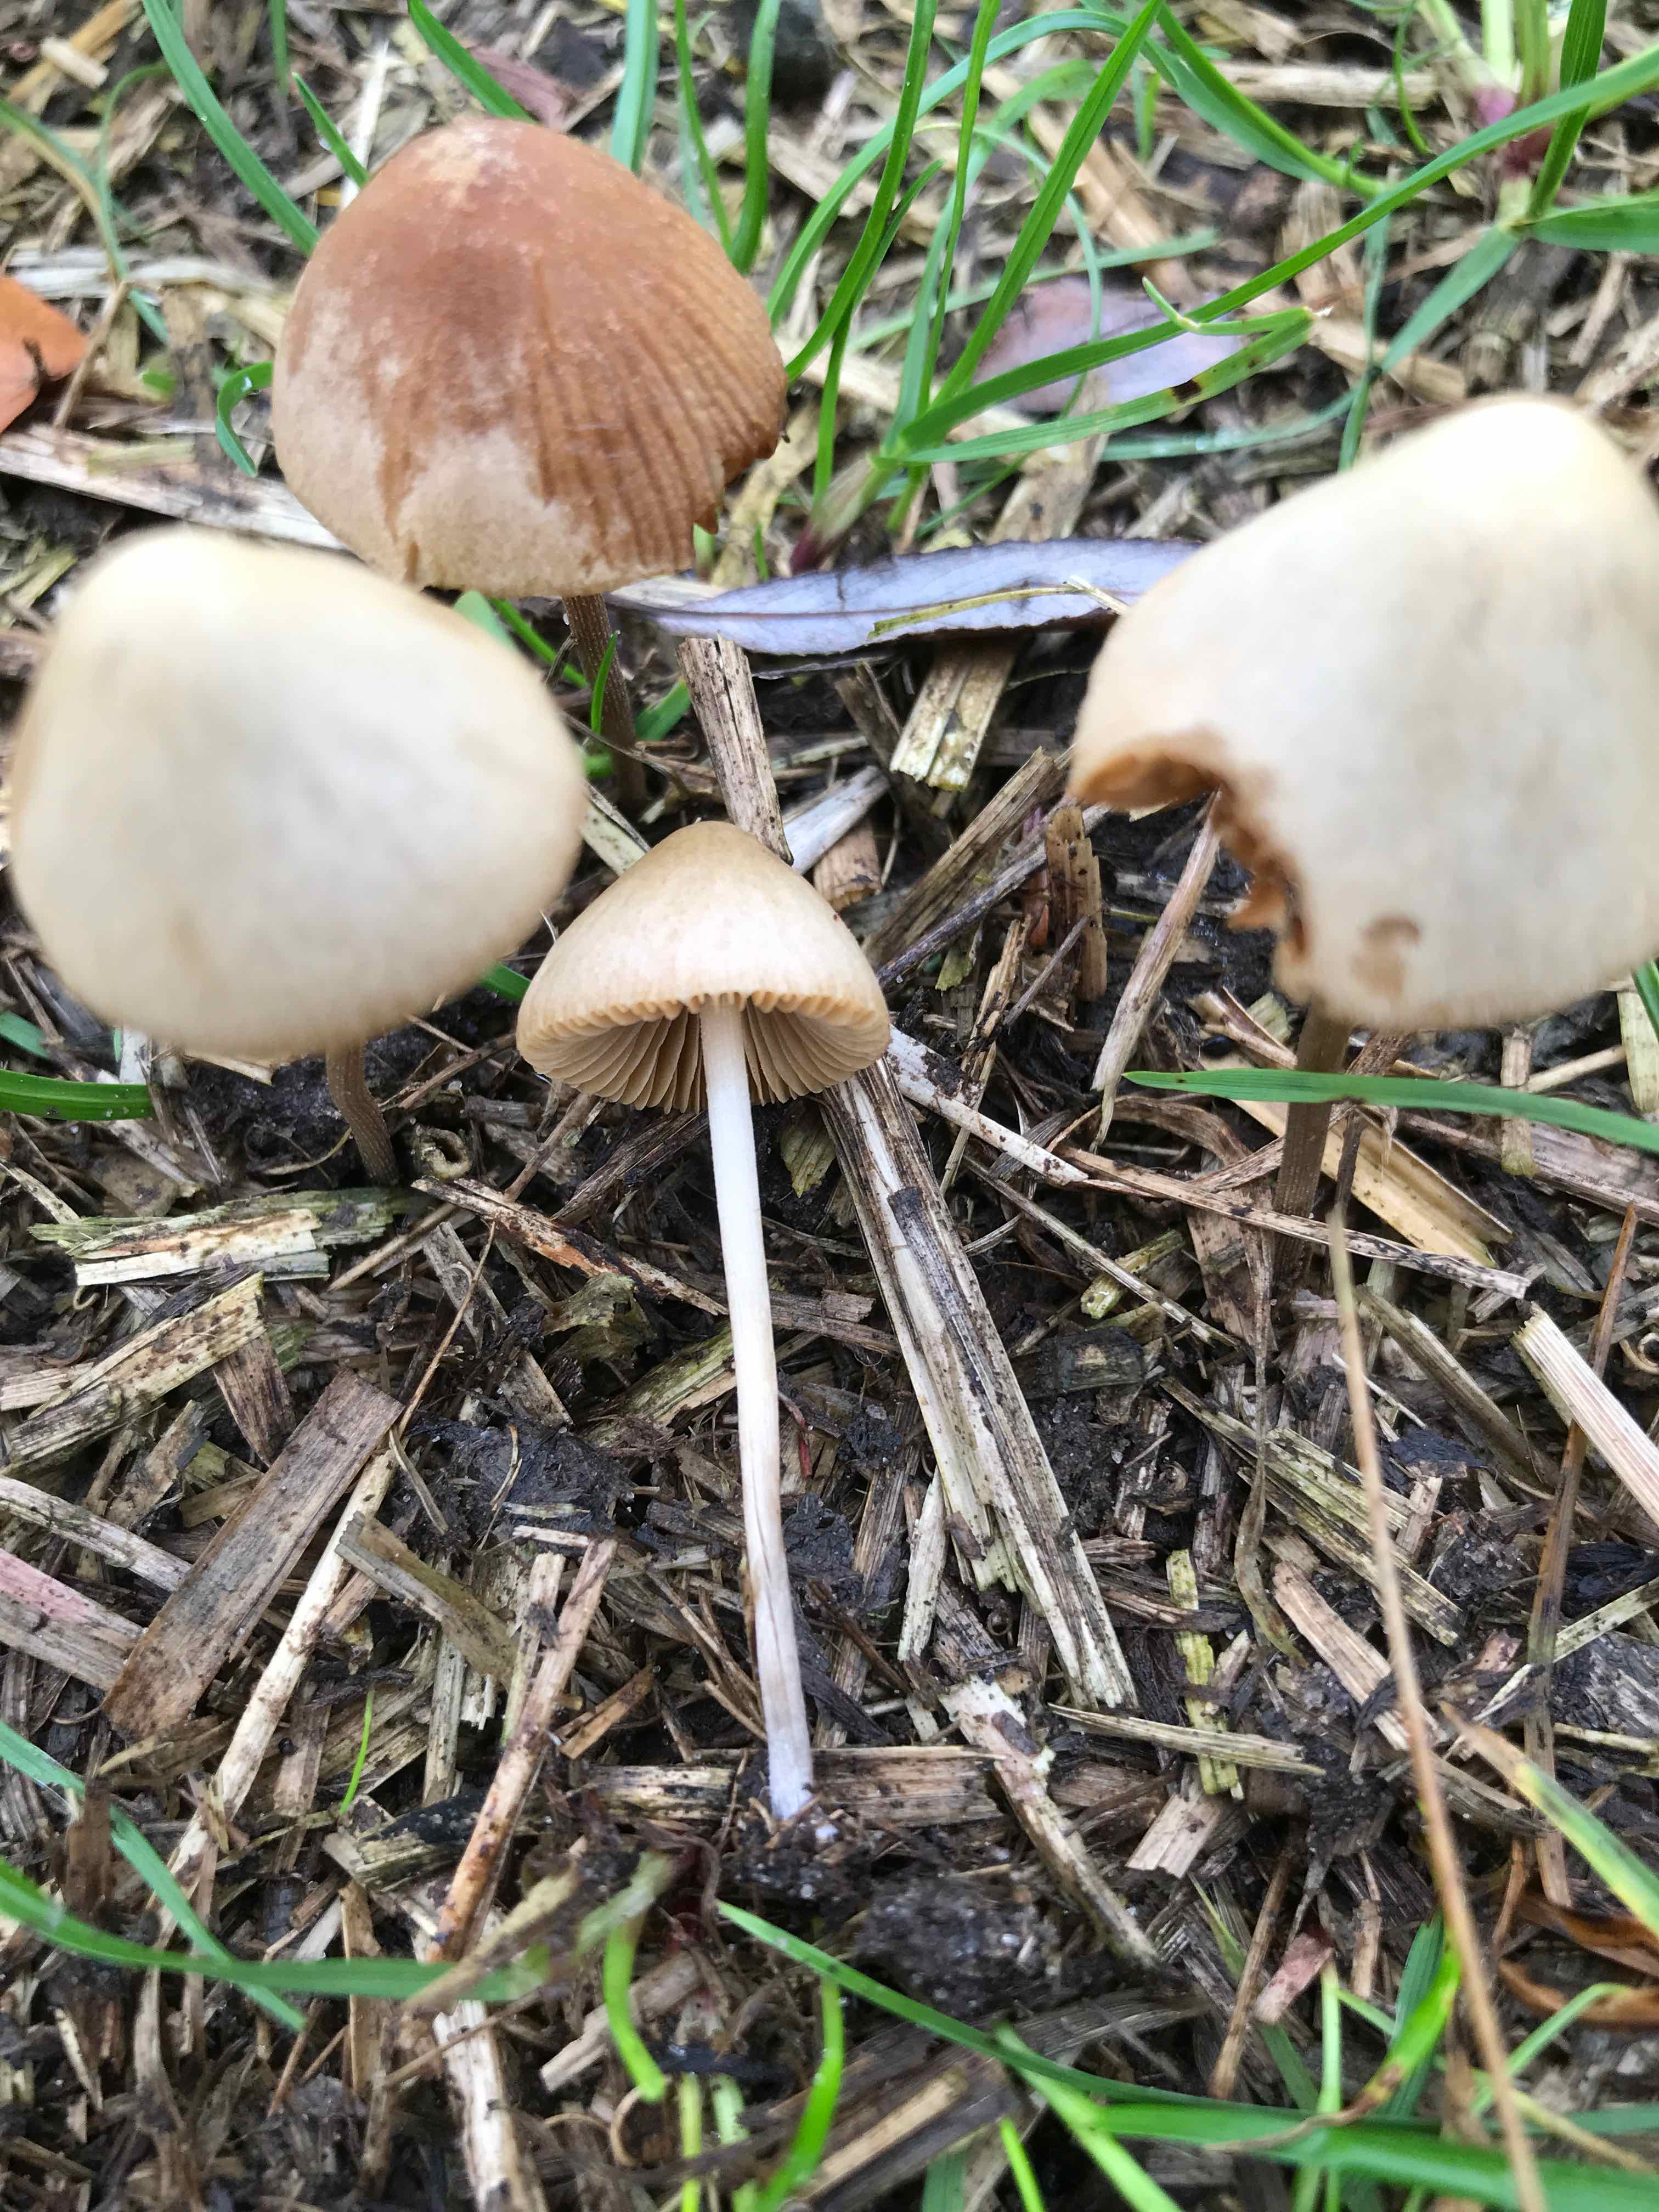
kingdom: Fungi
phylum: Basidiomycota
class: Agaricomycetes
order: Agaricales
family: Bolbitiaceae
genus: Conocybe
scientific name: Conocybe
